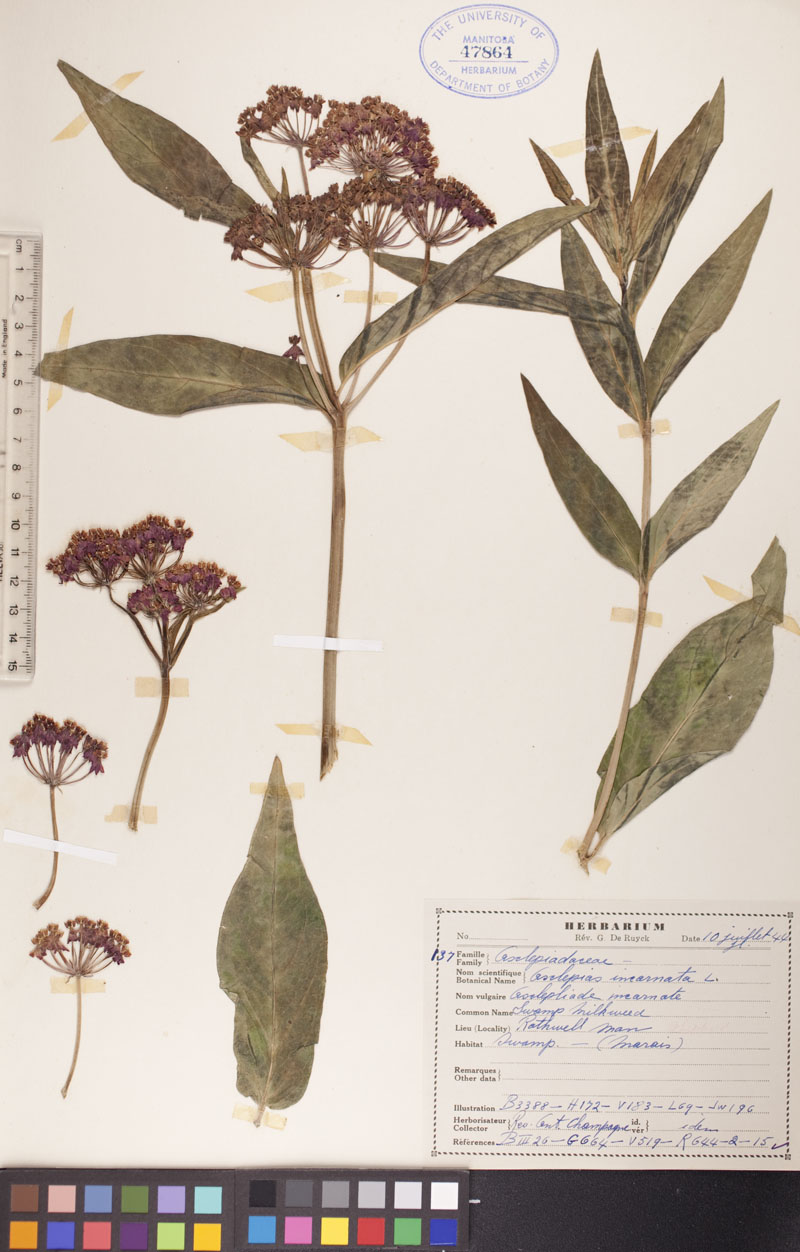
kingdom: Plantae
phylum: Tracheophyta
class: Magnoliopsida
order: Gentianales
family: Apocynaceae
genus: Asclepias
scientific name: Asclepias incarnata
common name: Swamp milkweed
